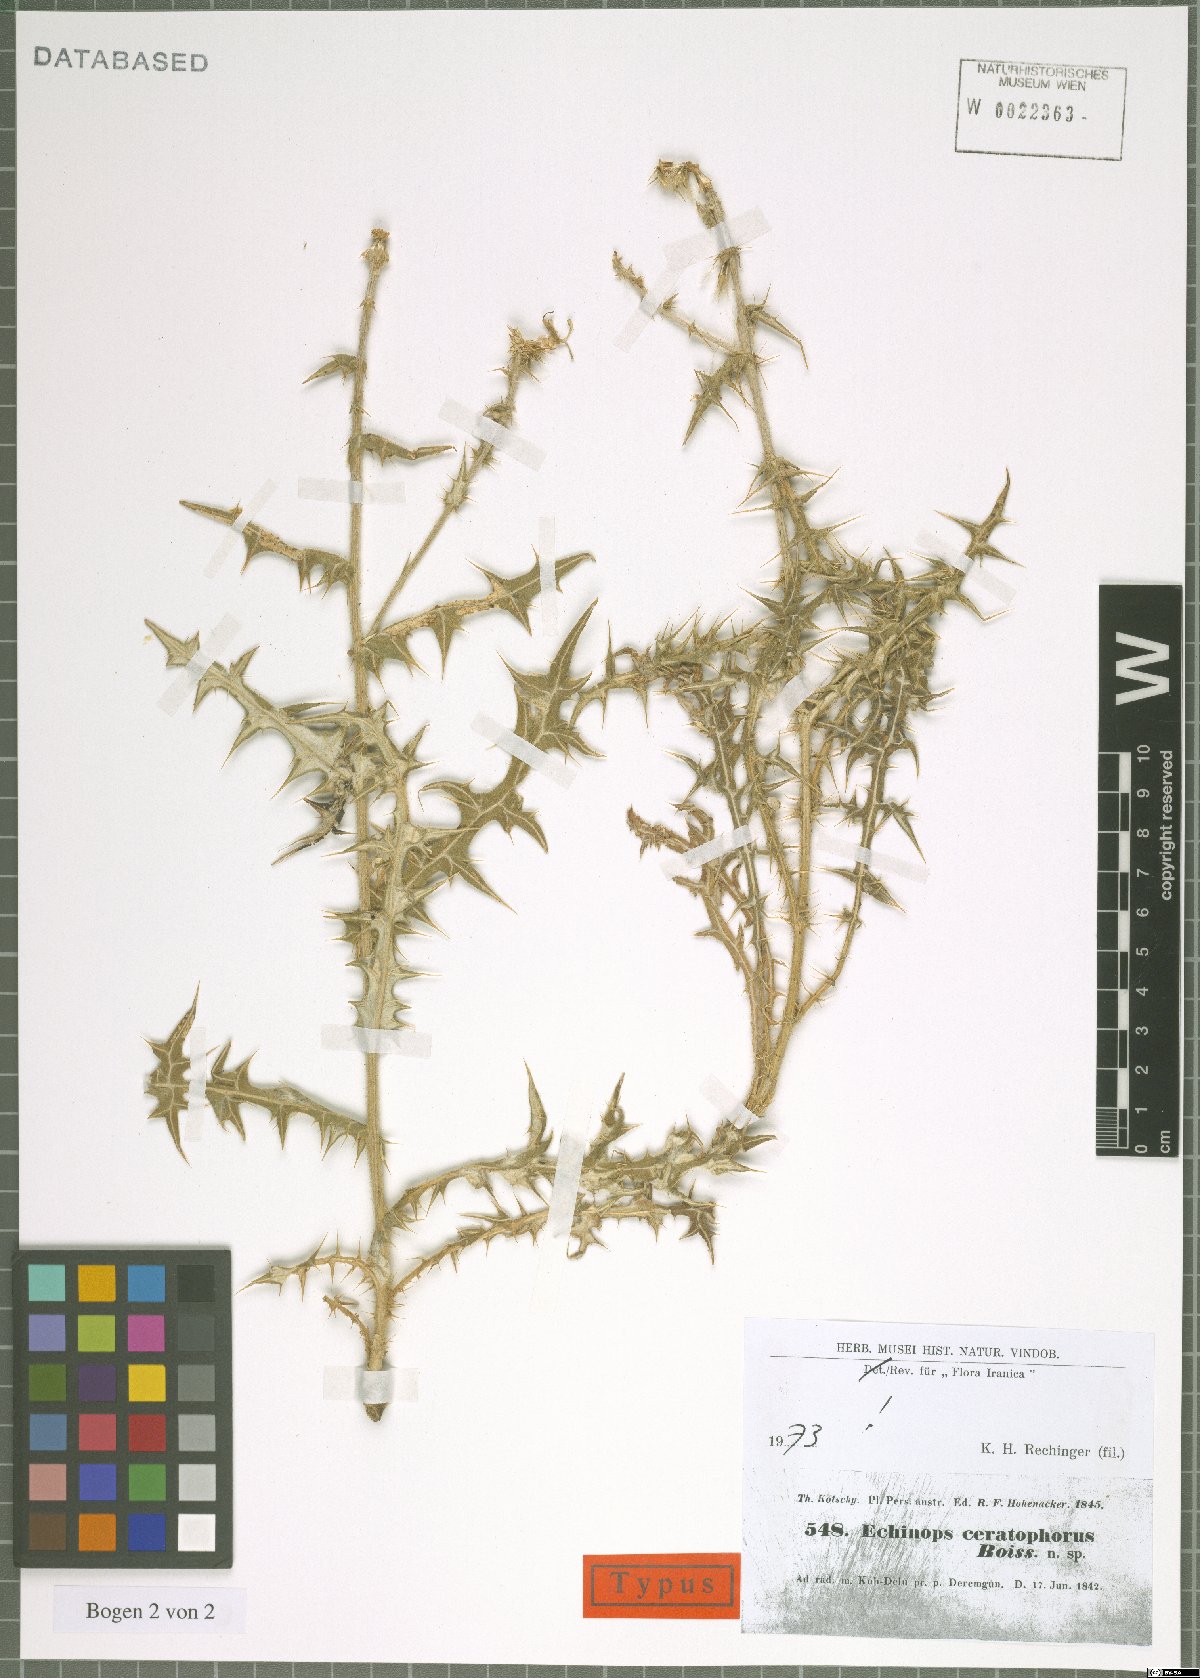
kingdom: Plantae
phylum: Tracheophyta
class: Magnoliopsida
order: Asterales
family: Asteraceae
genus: Echinops
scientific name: Echinops ceratophorus
